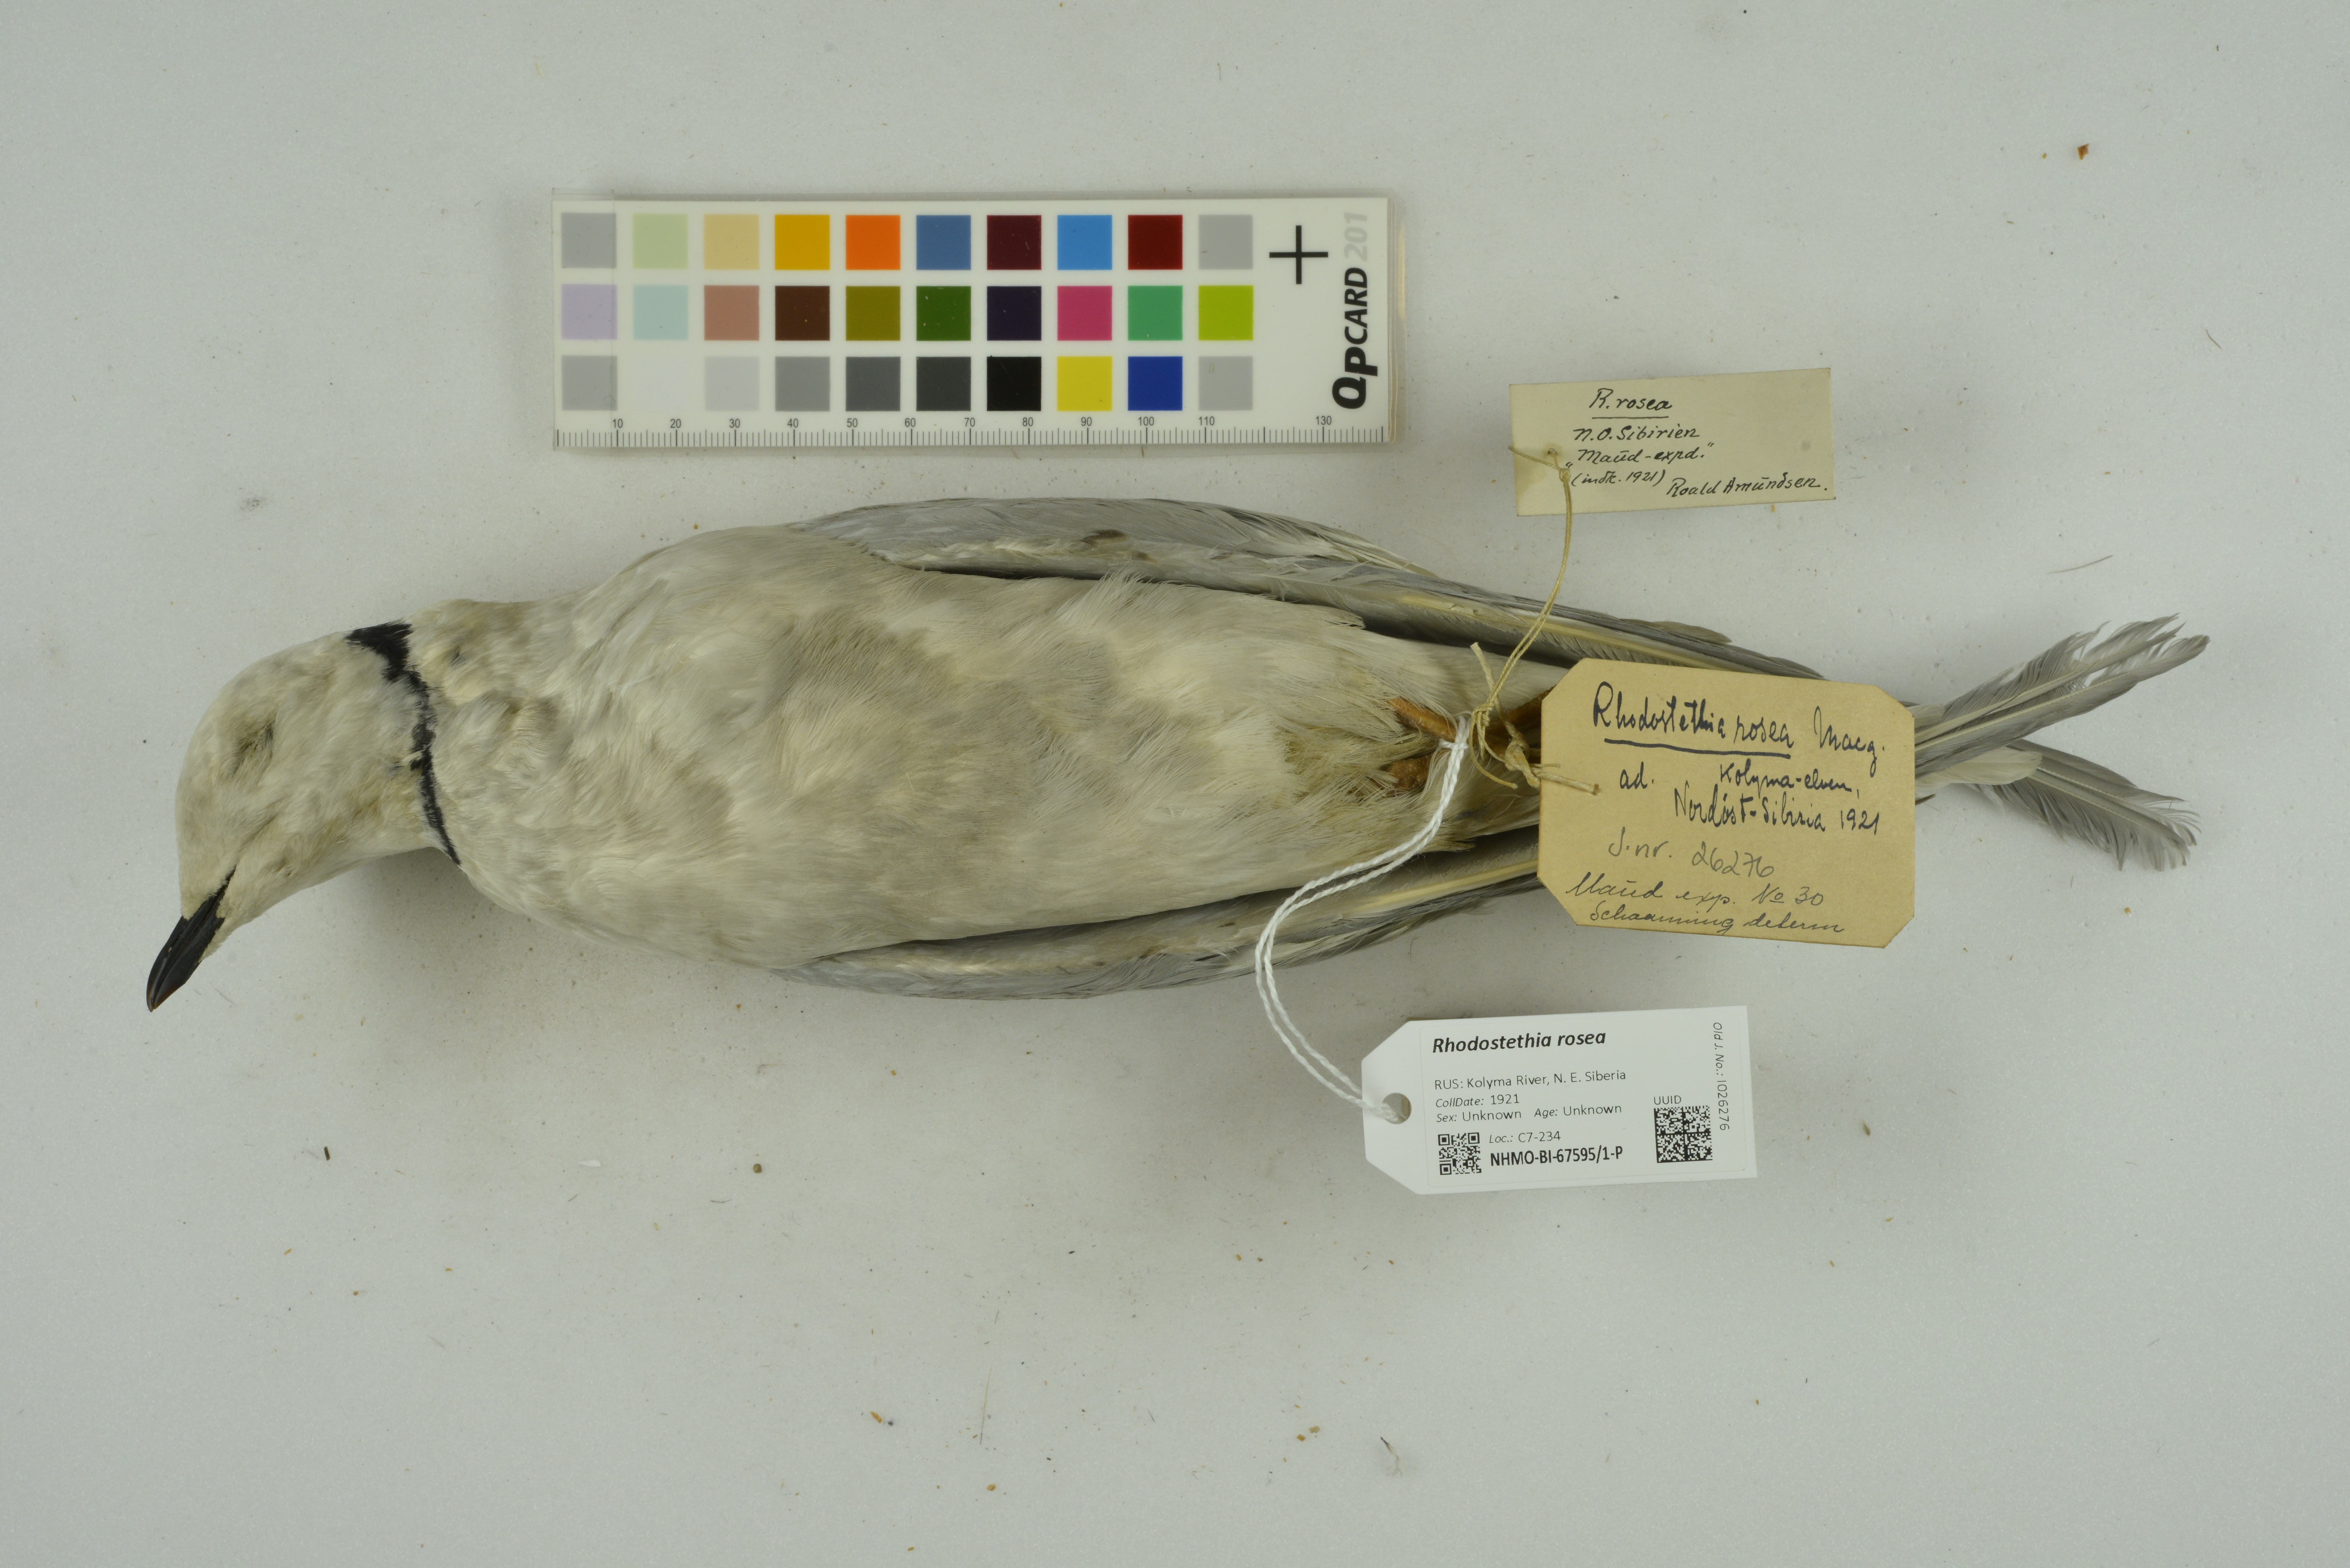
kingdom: Animalia
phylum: Chordata
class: Aves
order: Charadriiformes
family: Laridae
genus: Rhodostethia
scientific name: Rhodostethia rosea
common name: Ross's gull
